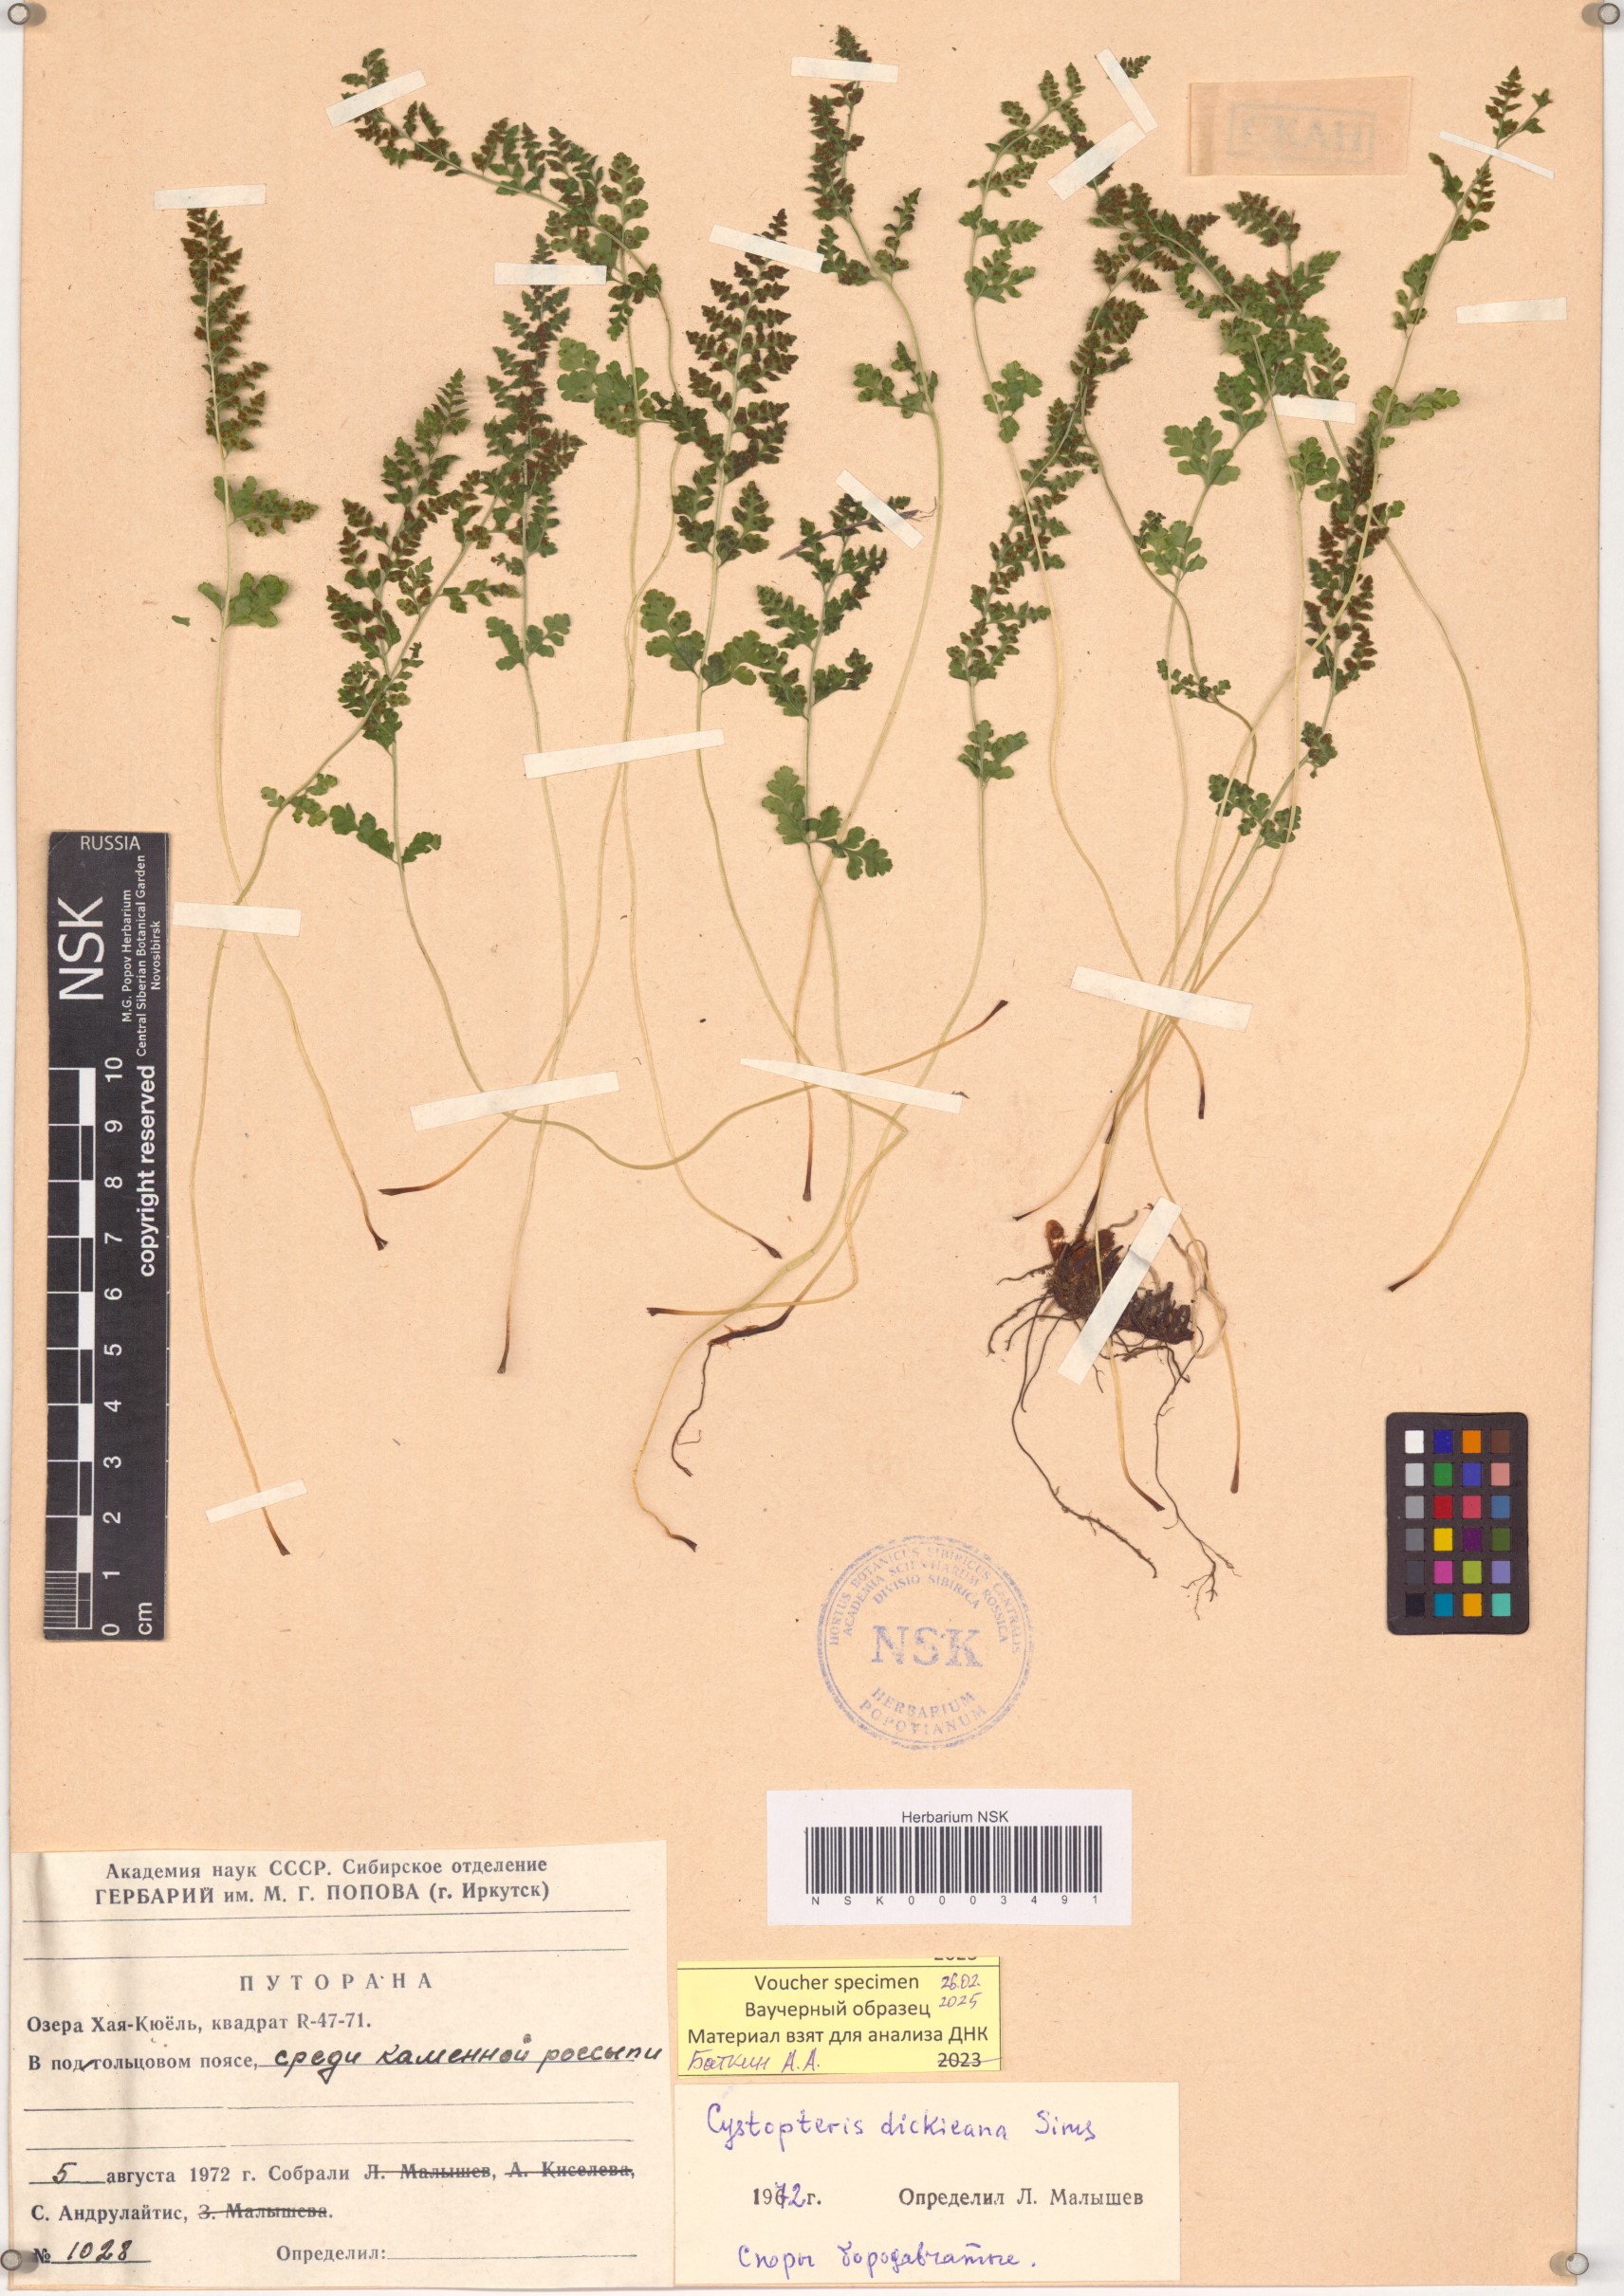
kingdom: Plantae
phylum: Tracheophyta
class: Polypodiopsida
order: Polypodiales
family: Cystopteridaceae
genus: Cystopteris
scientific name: Cystopteris dickieana
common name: Dickie's bladder-fern
